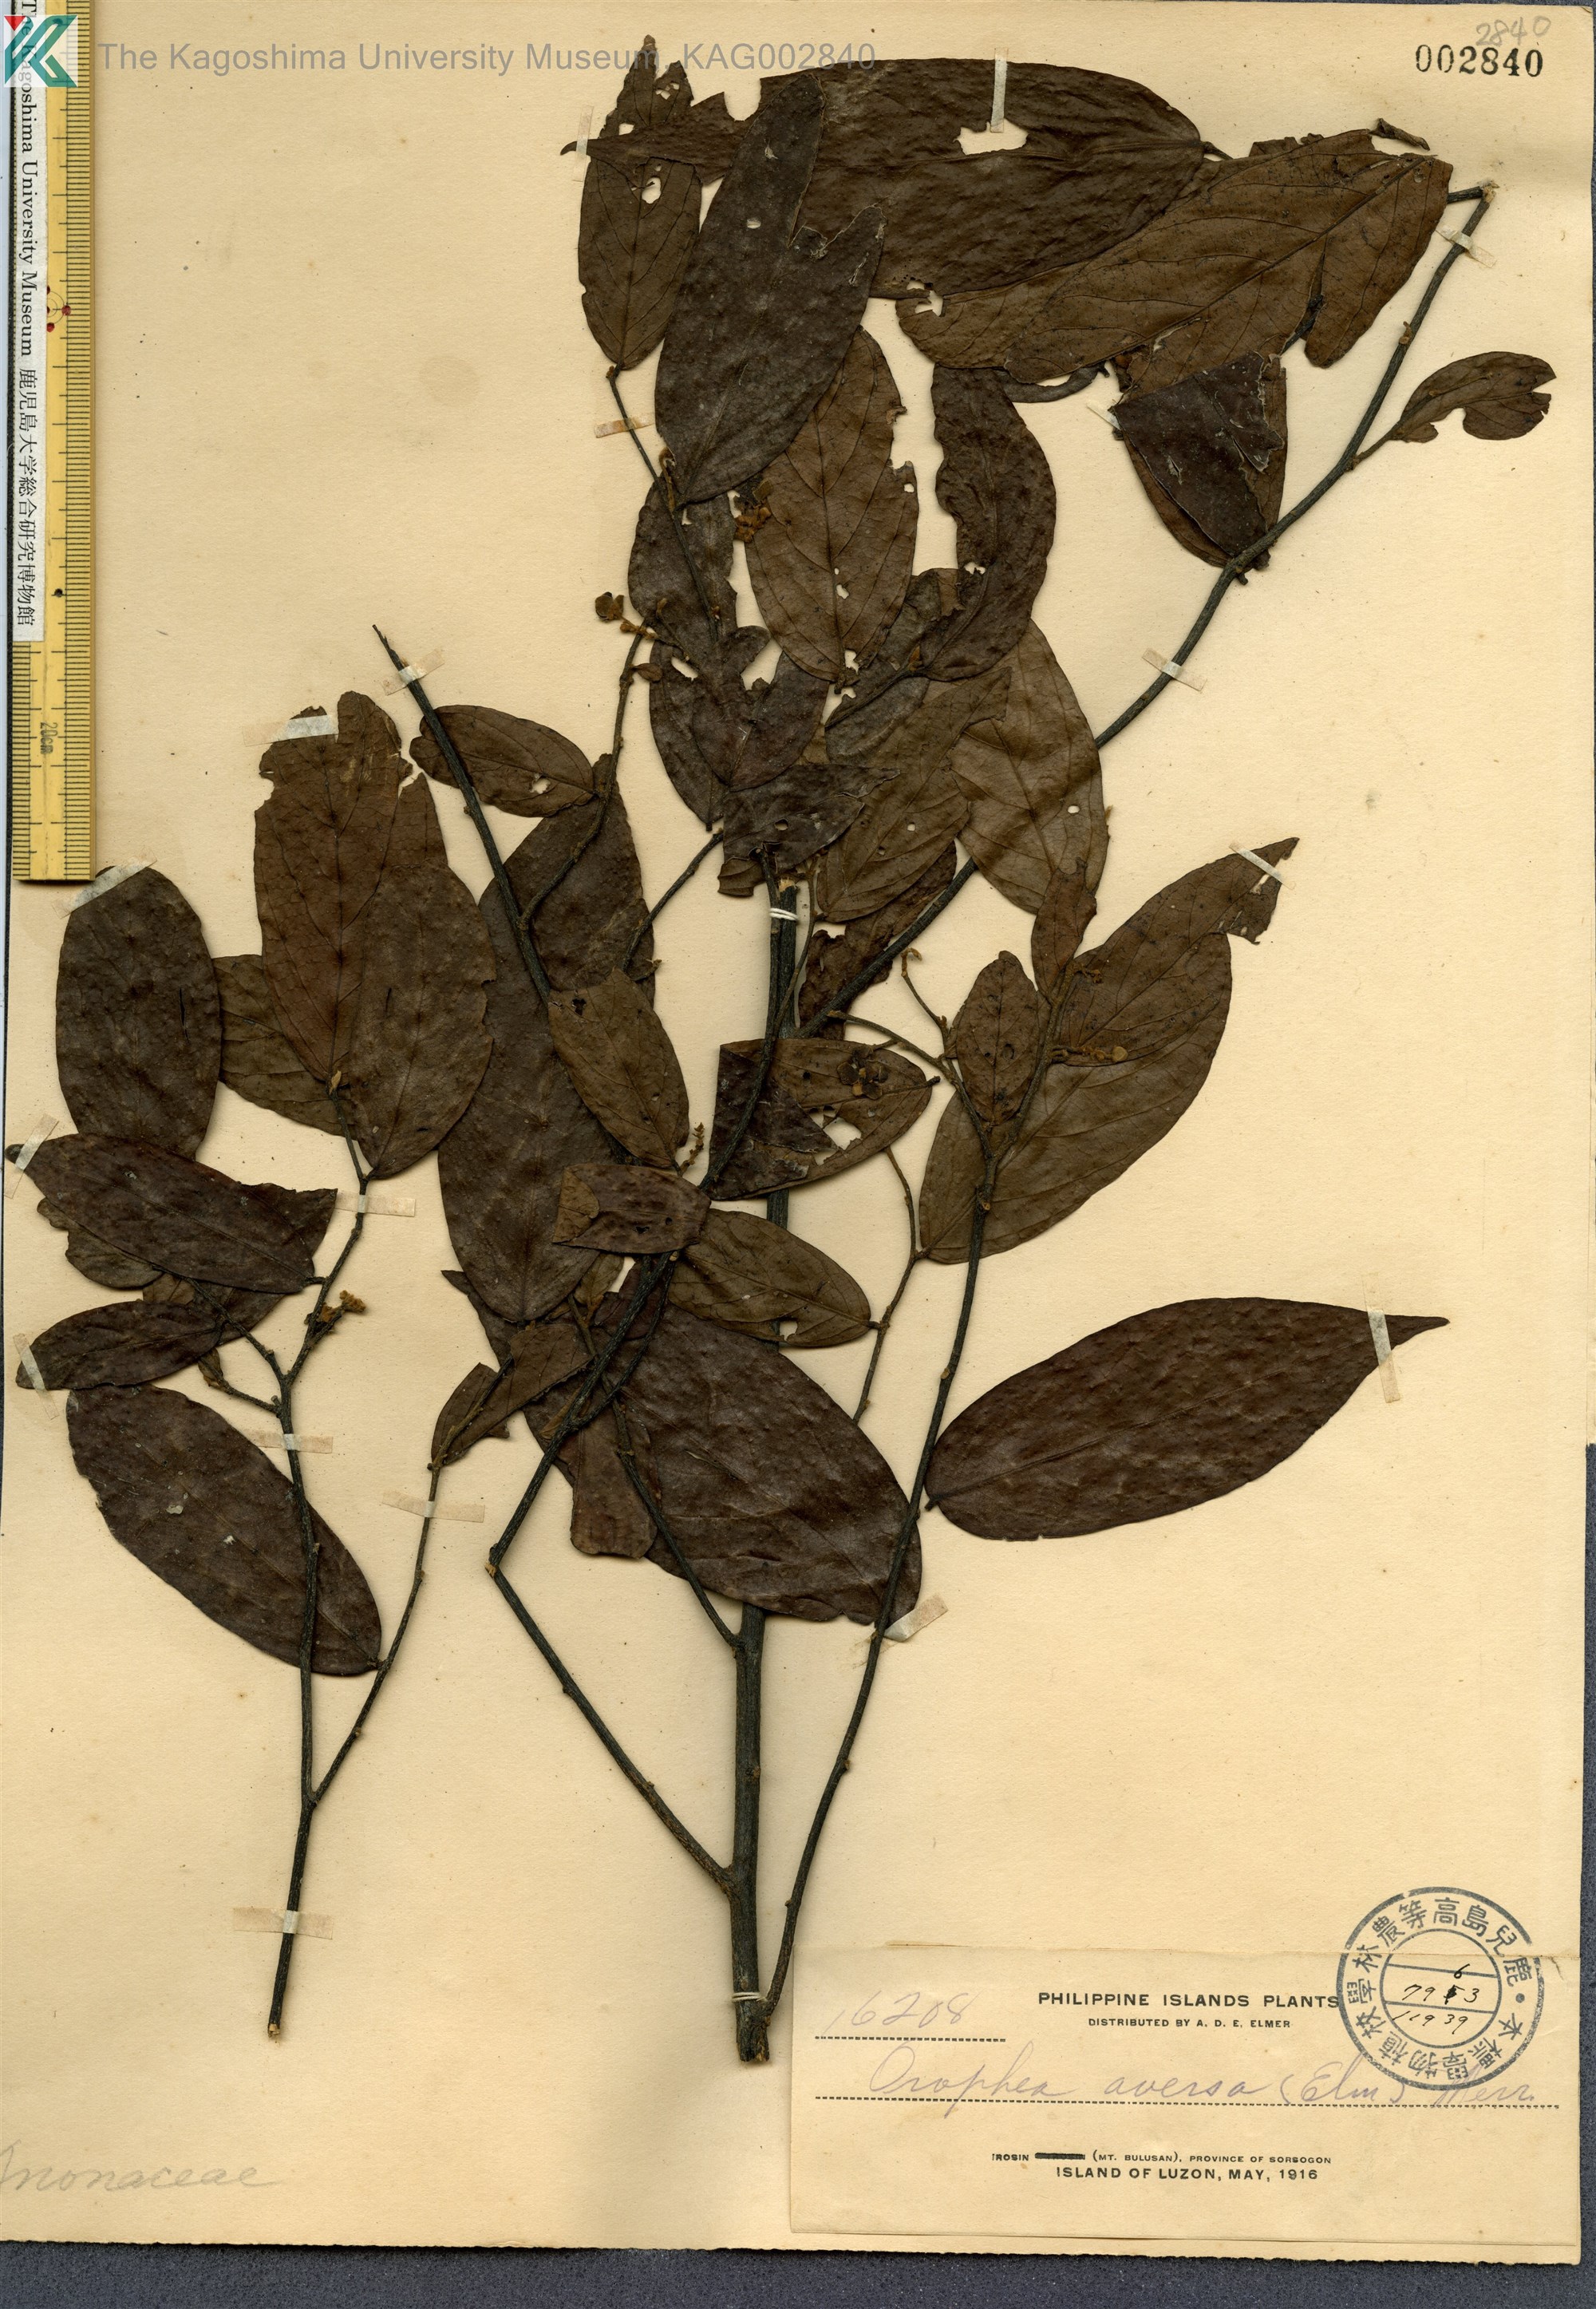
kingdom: Plantae
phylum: Tracheophyta
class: Magnoliopsida
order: Magnoliales
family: Annonaceae
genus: Orophea
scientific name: Orophea cumingiana
